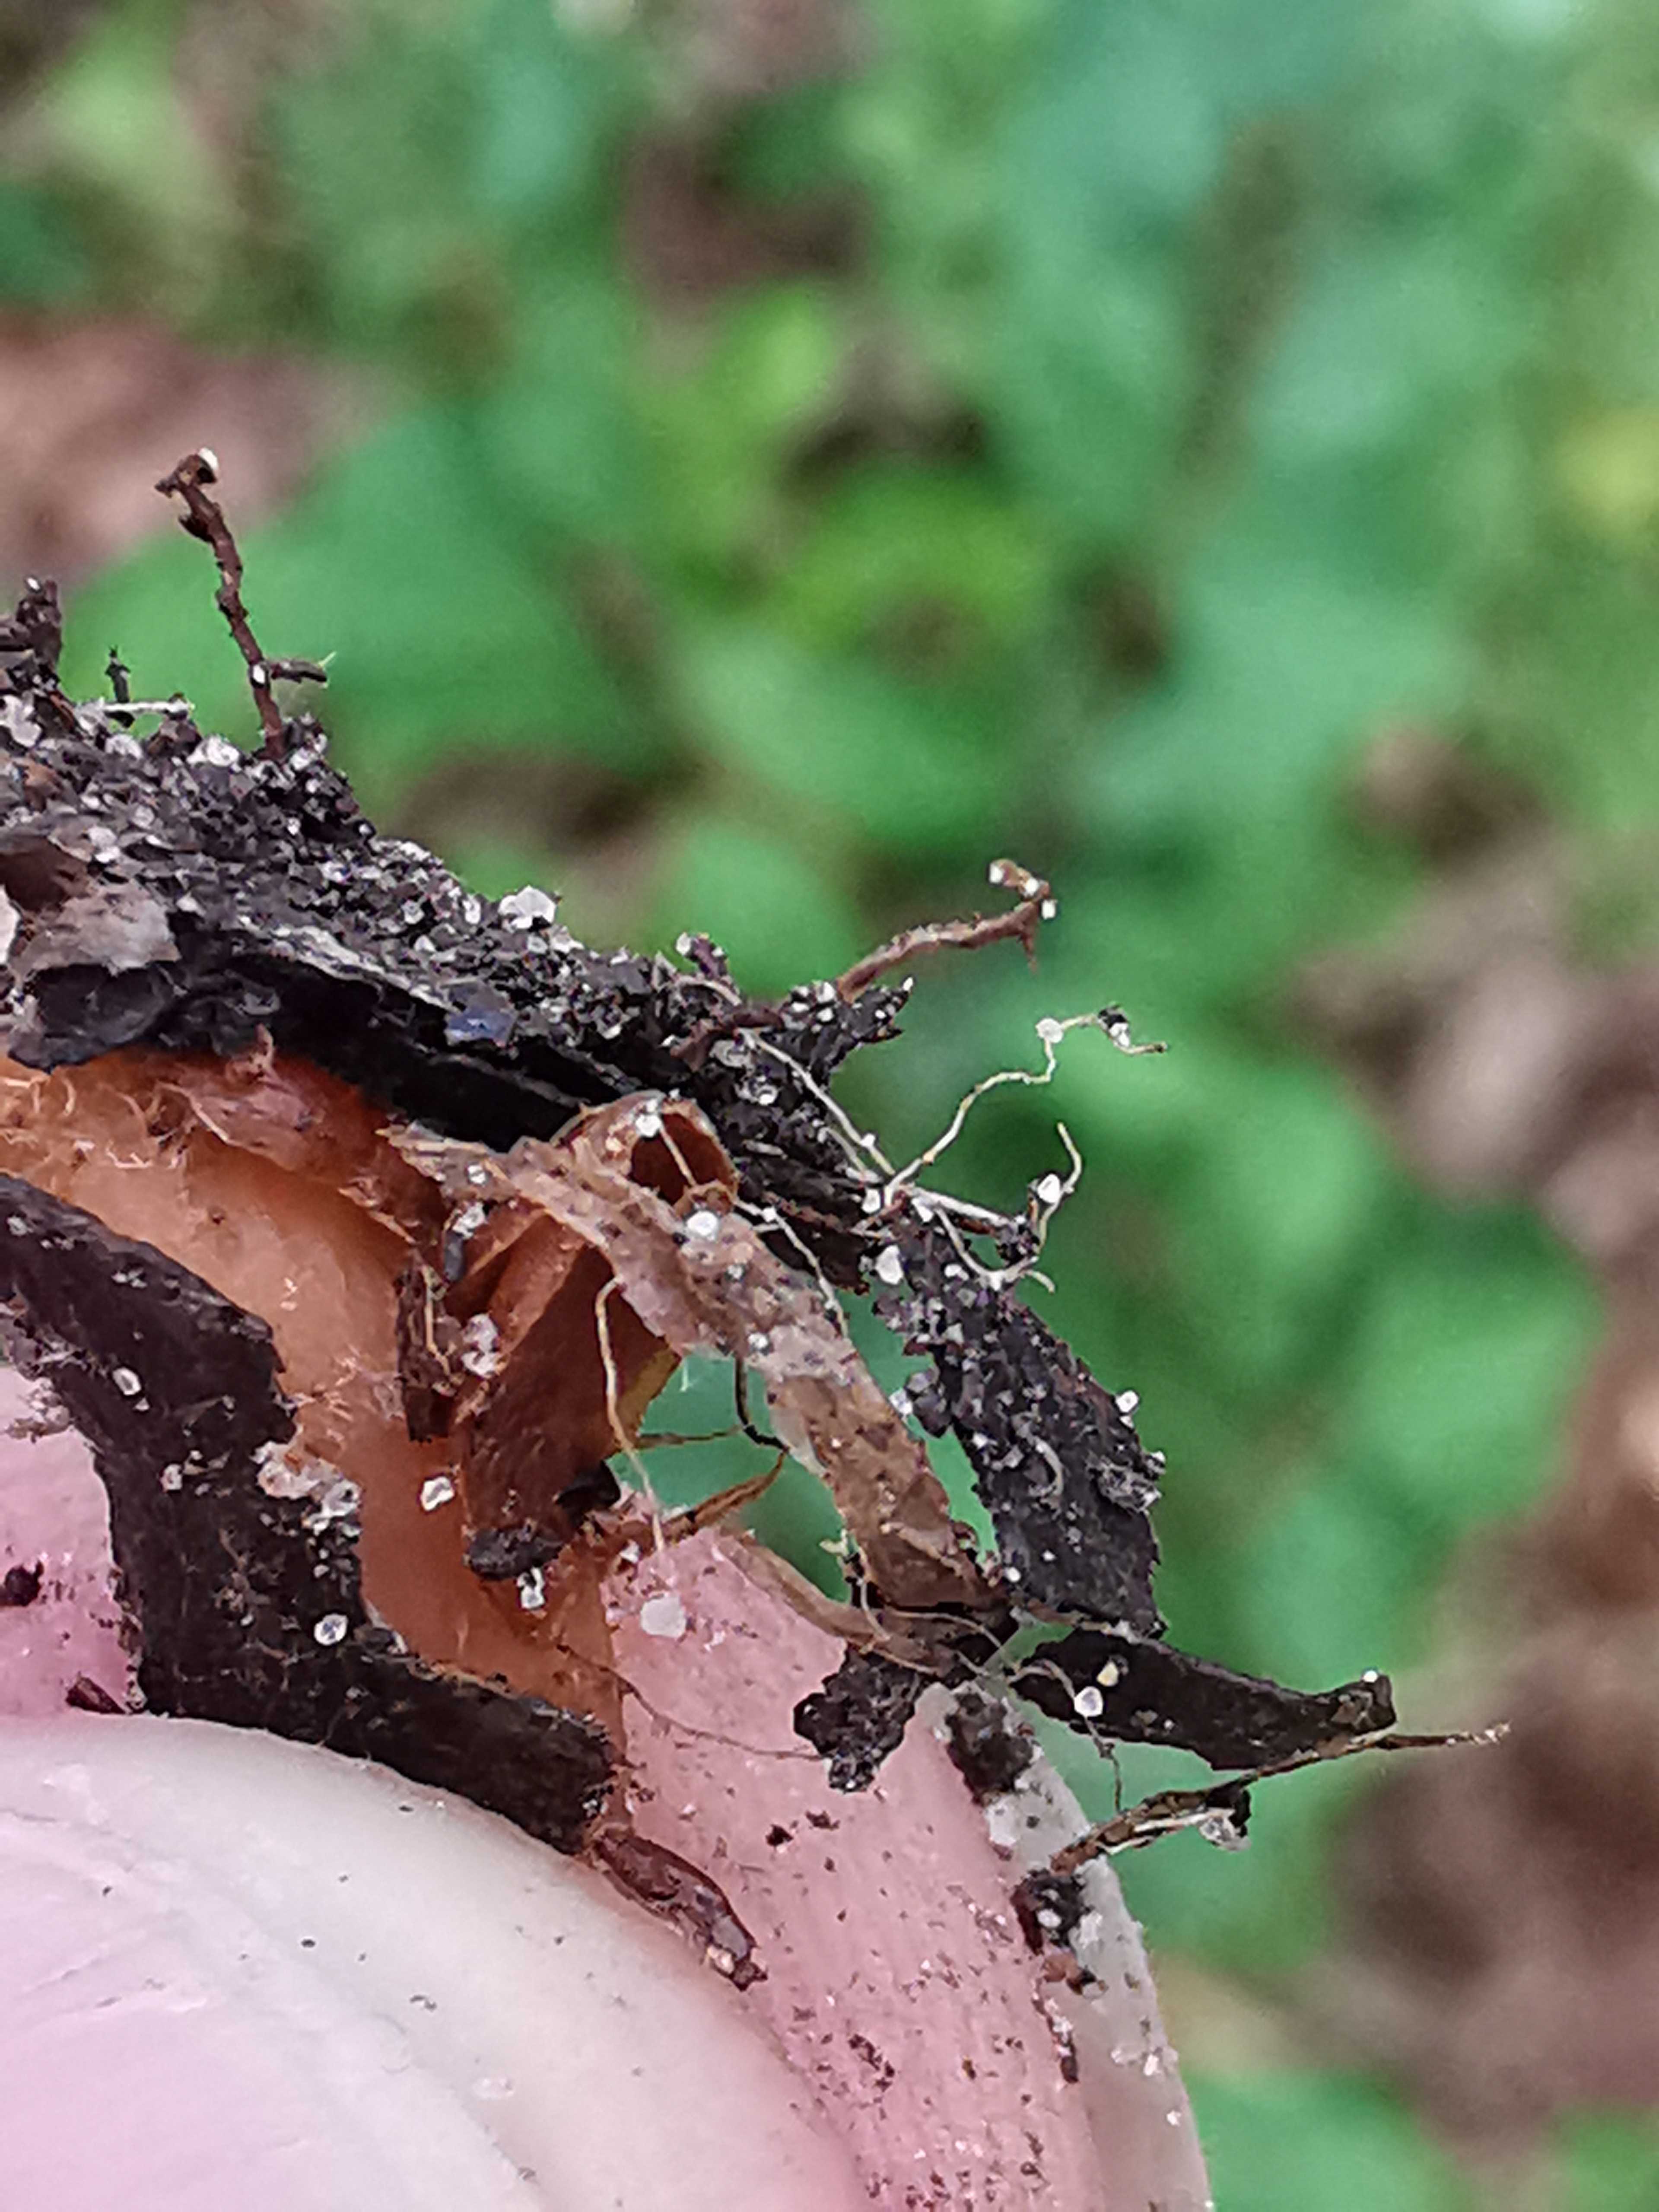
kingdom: Fungi
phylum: Basidiomycota
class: Agaricomycetes
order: Agaricales
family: Omphalotaceae
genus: Gymnopus
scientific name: Gymnopus dryophilus
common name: løv-fladhat
